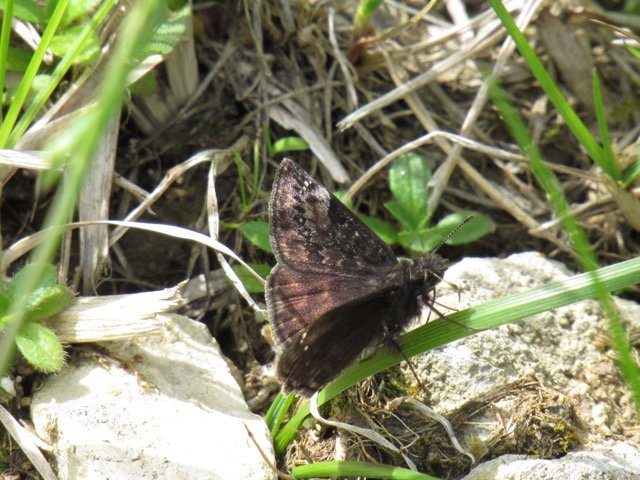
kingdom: Animalia
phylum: Arthropoda
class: Insecta
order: Lepidoptera
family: Hesperiidae
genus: Gesta
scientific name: Gesta
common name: Juvenal's Duskywing
